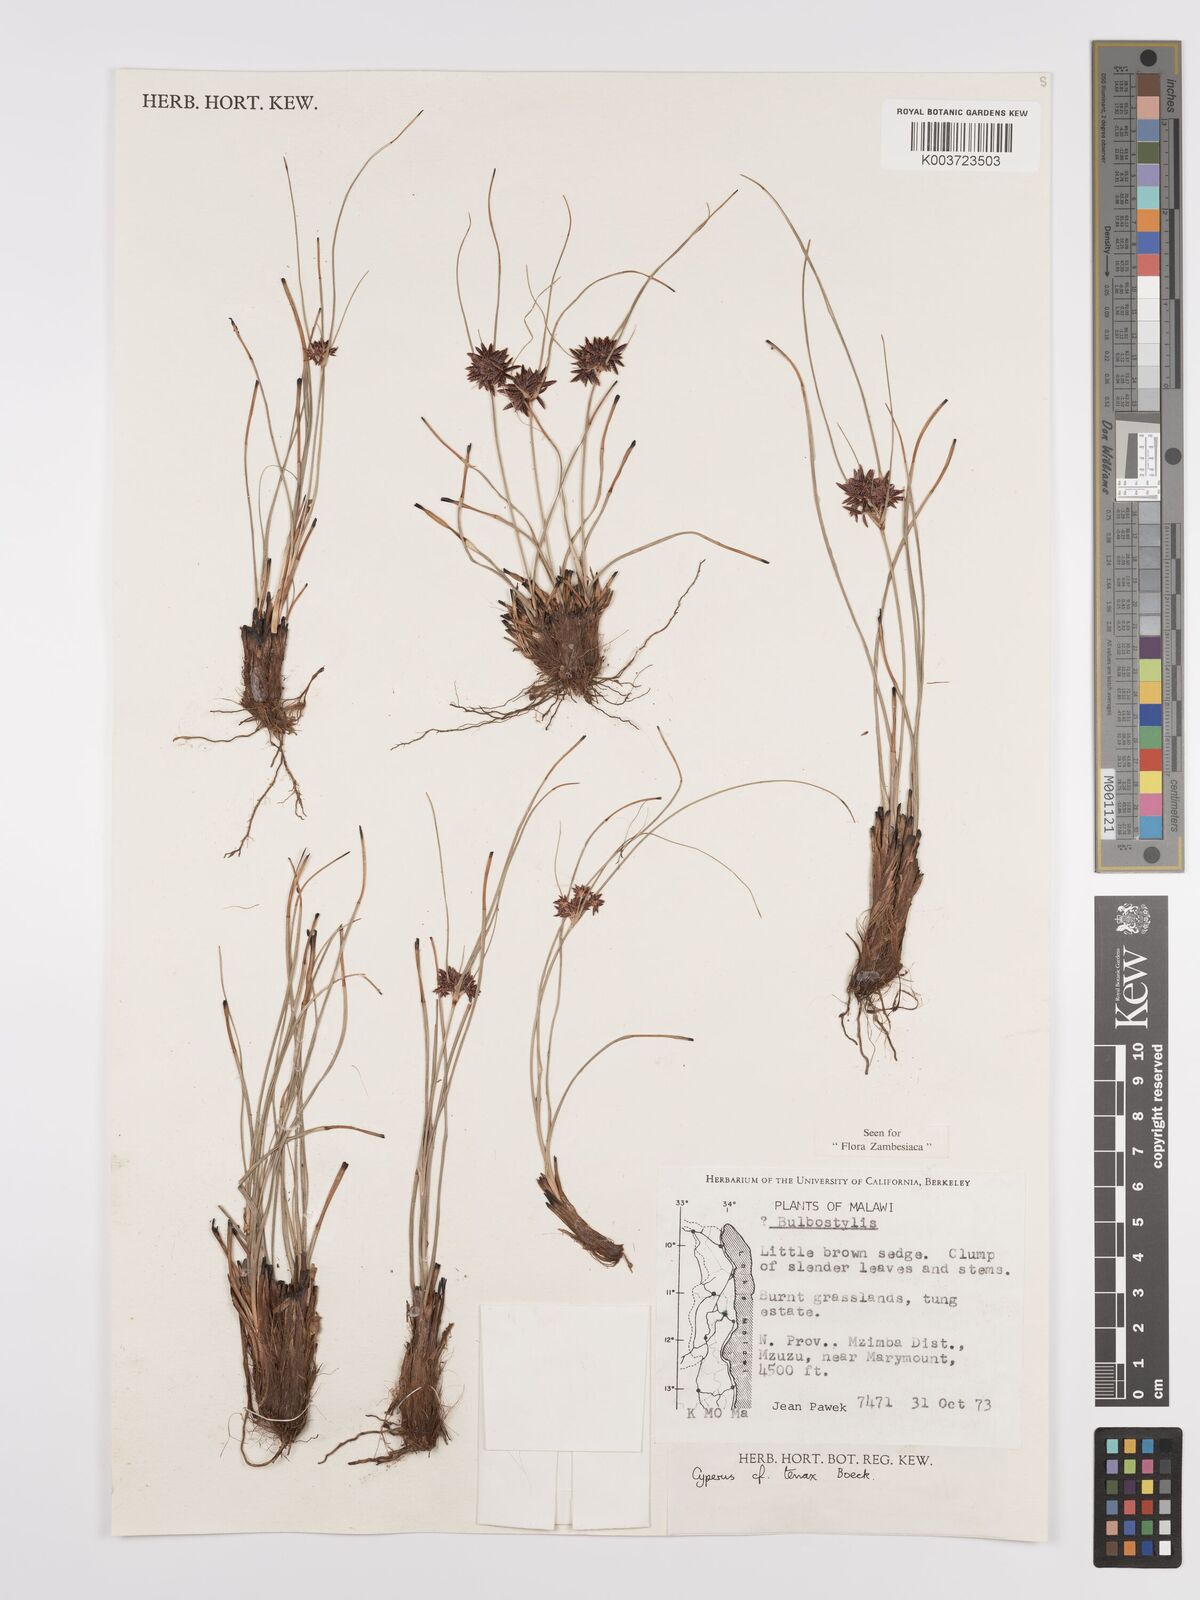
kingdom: Plantae
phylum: Tracheophyta
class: Liliopsida
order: Poales
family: Cyperaceae
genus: Cyperus
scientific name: Cyperus tenax
